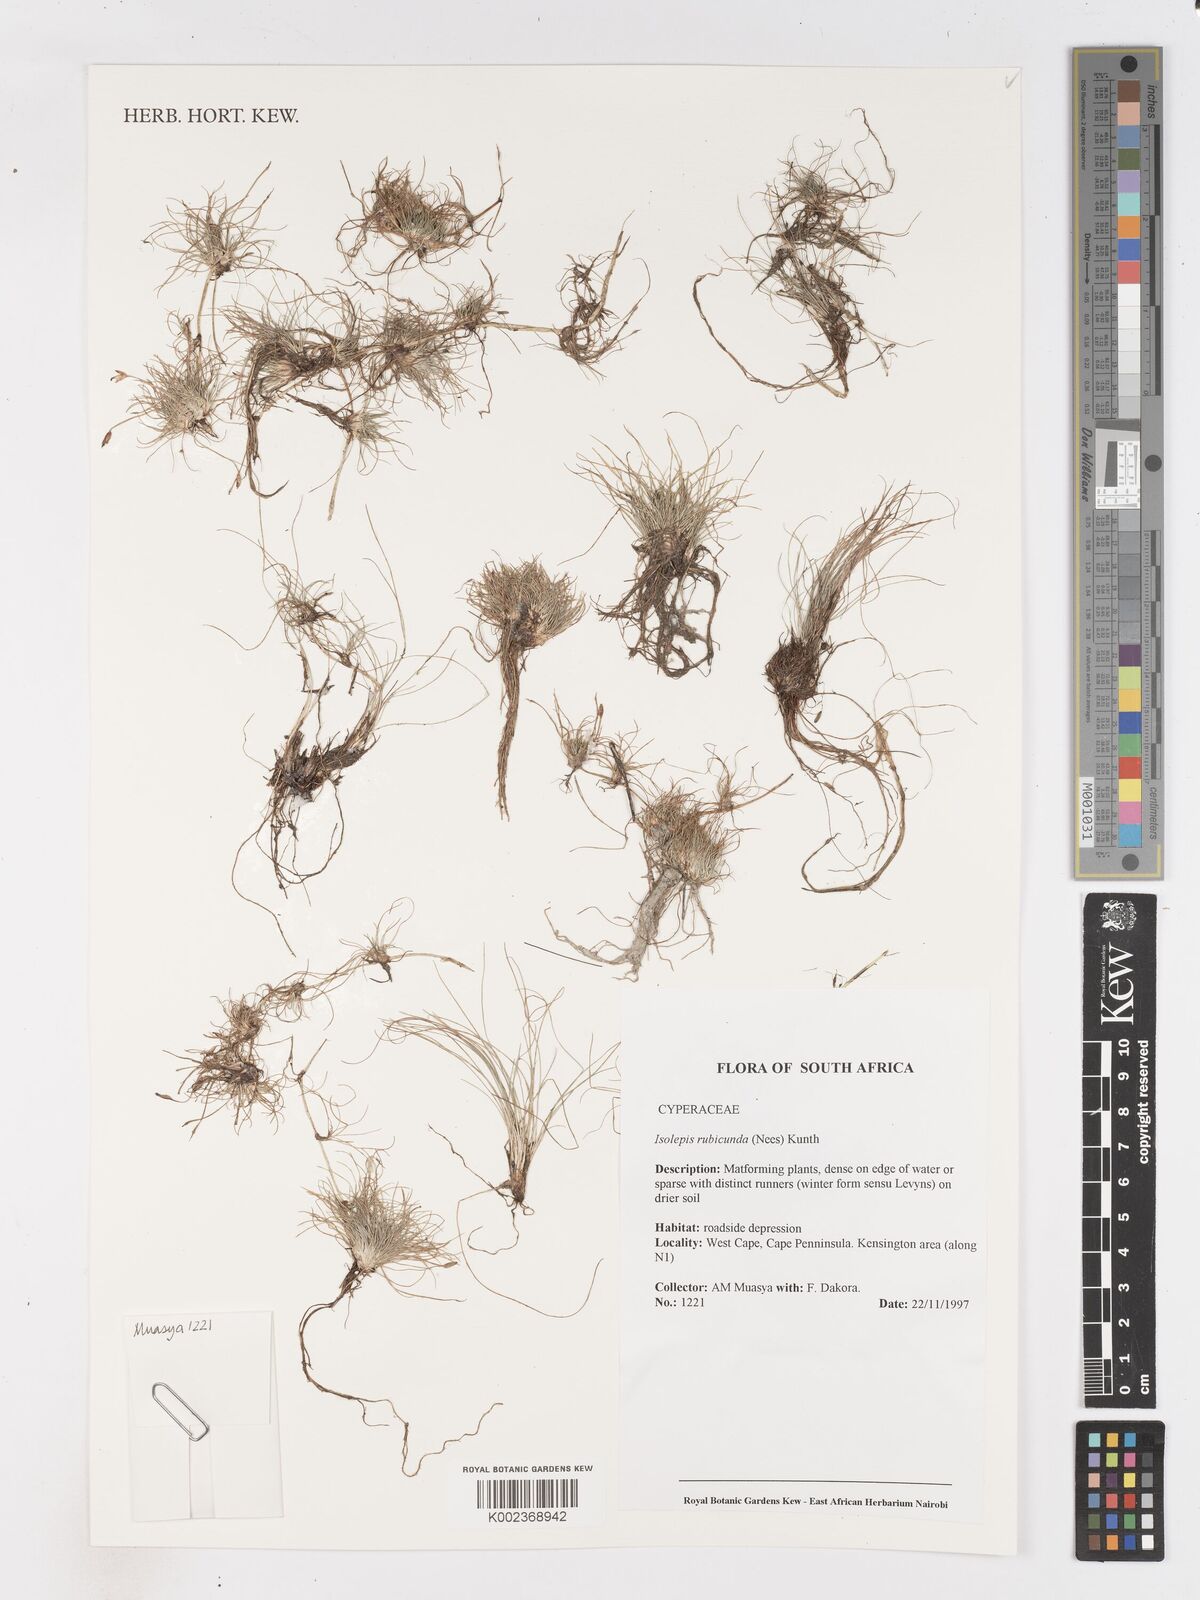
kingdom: Plantae
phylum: Tracheophyta
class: Liliopsida
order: Poales
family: Cyperaceae
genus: Isolepis
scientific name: Isolepis rubicunda
